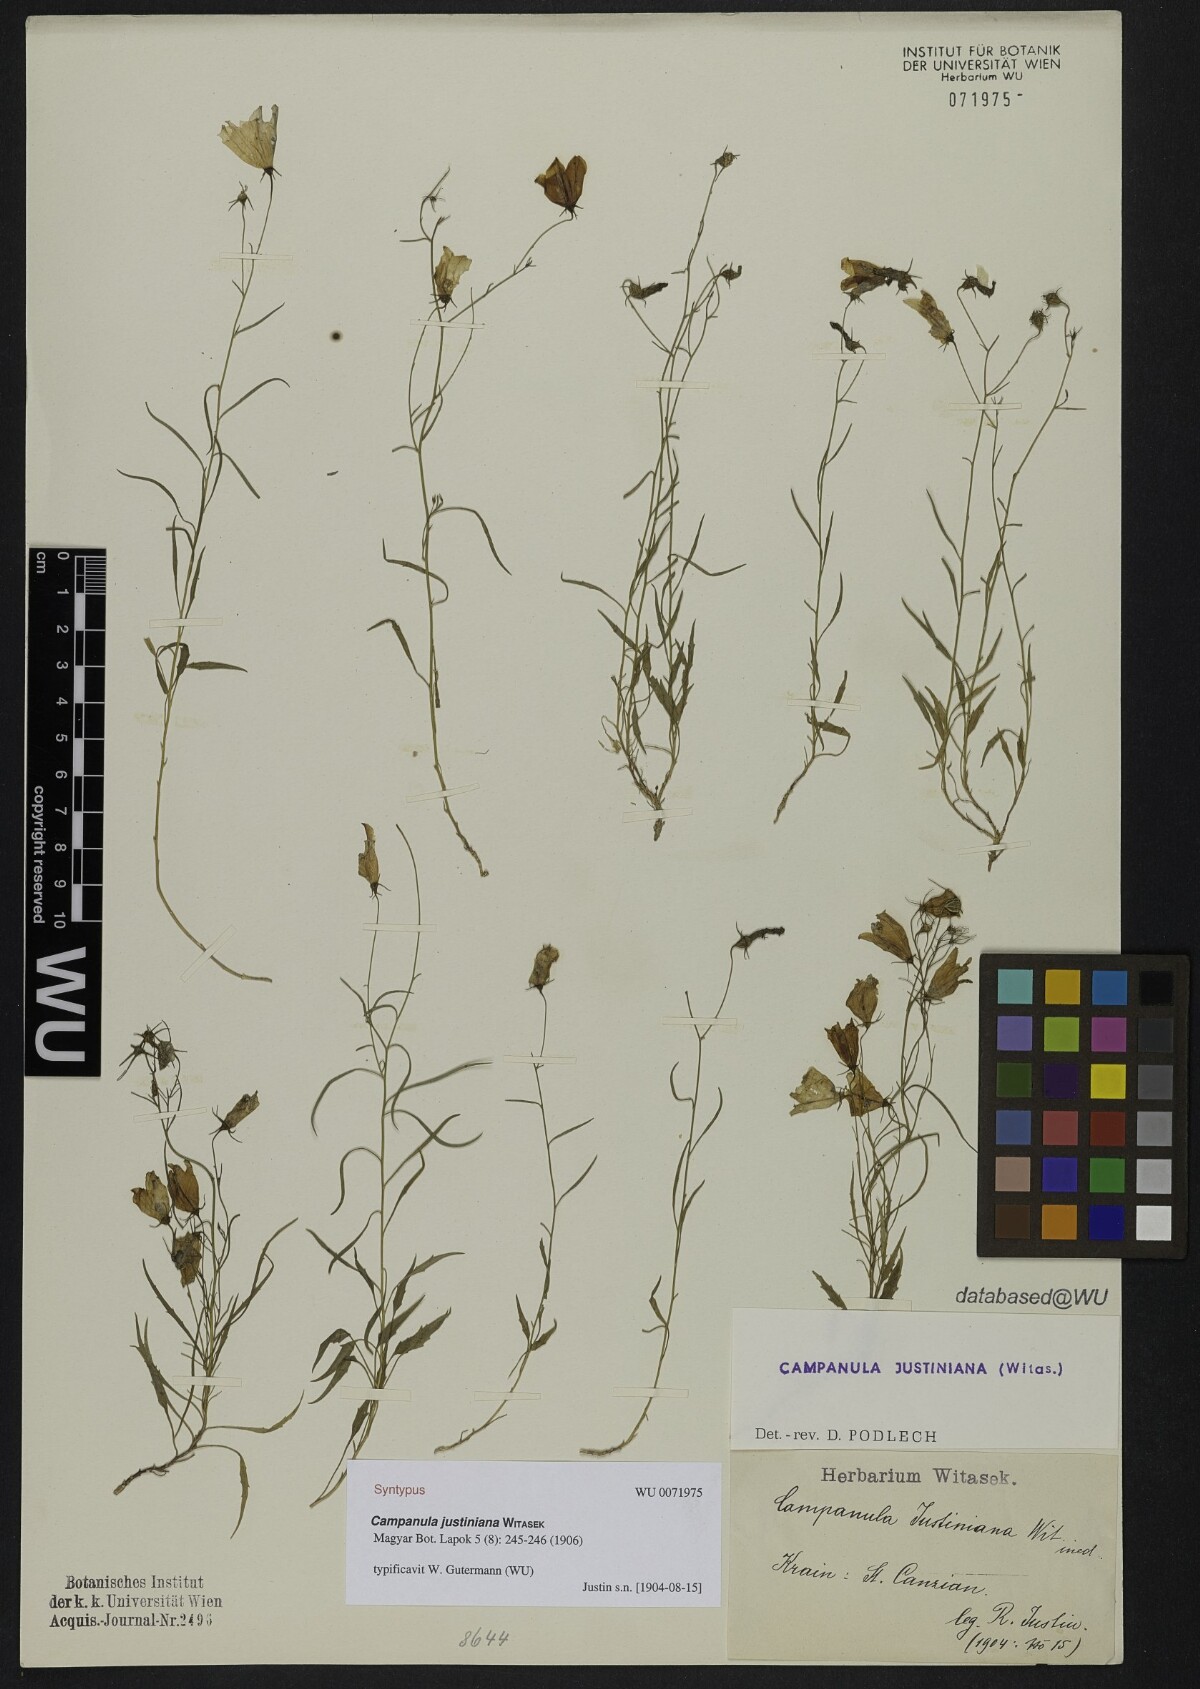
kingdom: Plantae
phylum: Tracheophyta
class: Magnoliopsida
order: Asterales
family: Campanulaceae
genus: Campanula
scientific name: Campanula justiniana
